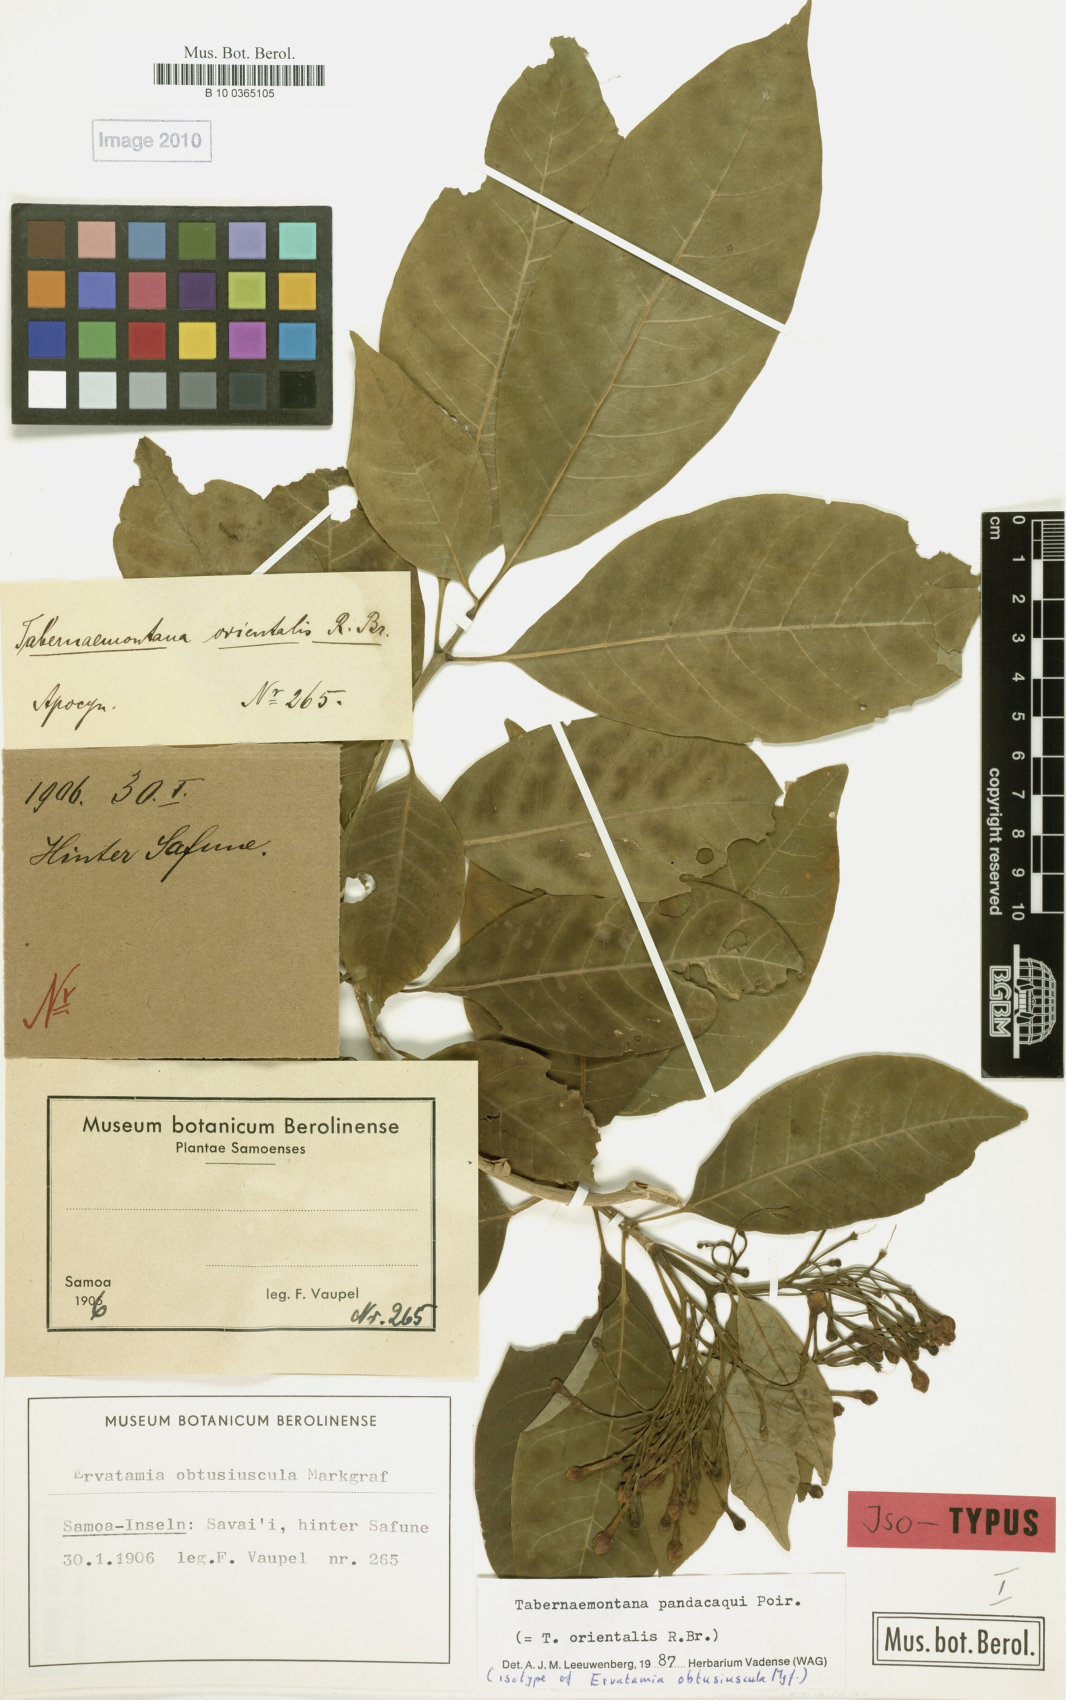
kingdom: Plantae
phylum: Tracheophyta
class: Magnoliopsida
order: Gentianales
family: Apocynaceae
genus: Tabernaemontana
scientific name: Tabernaemontana pandacaqui
